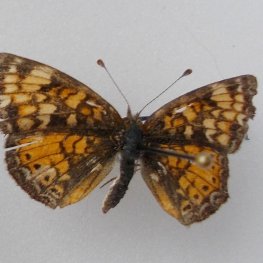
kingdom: Animalia
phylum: Arthropoda
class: Insecta
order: Lepidoptera
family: Nymphalidae
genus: Phyciodes
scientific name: Phyciodes tharos
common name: Pearl Crescent
